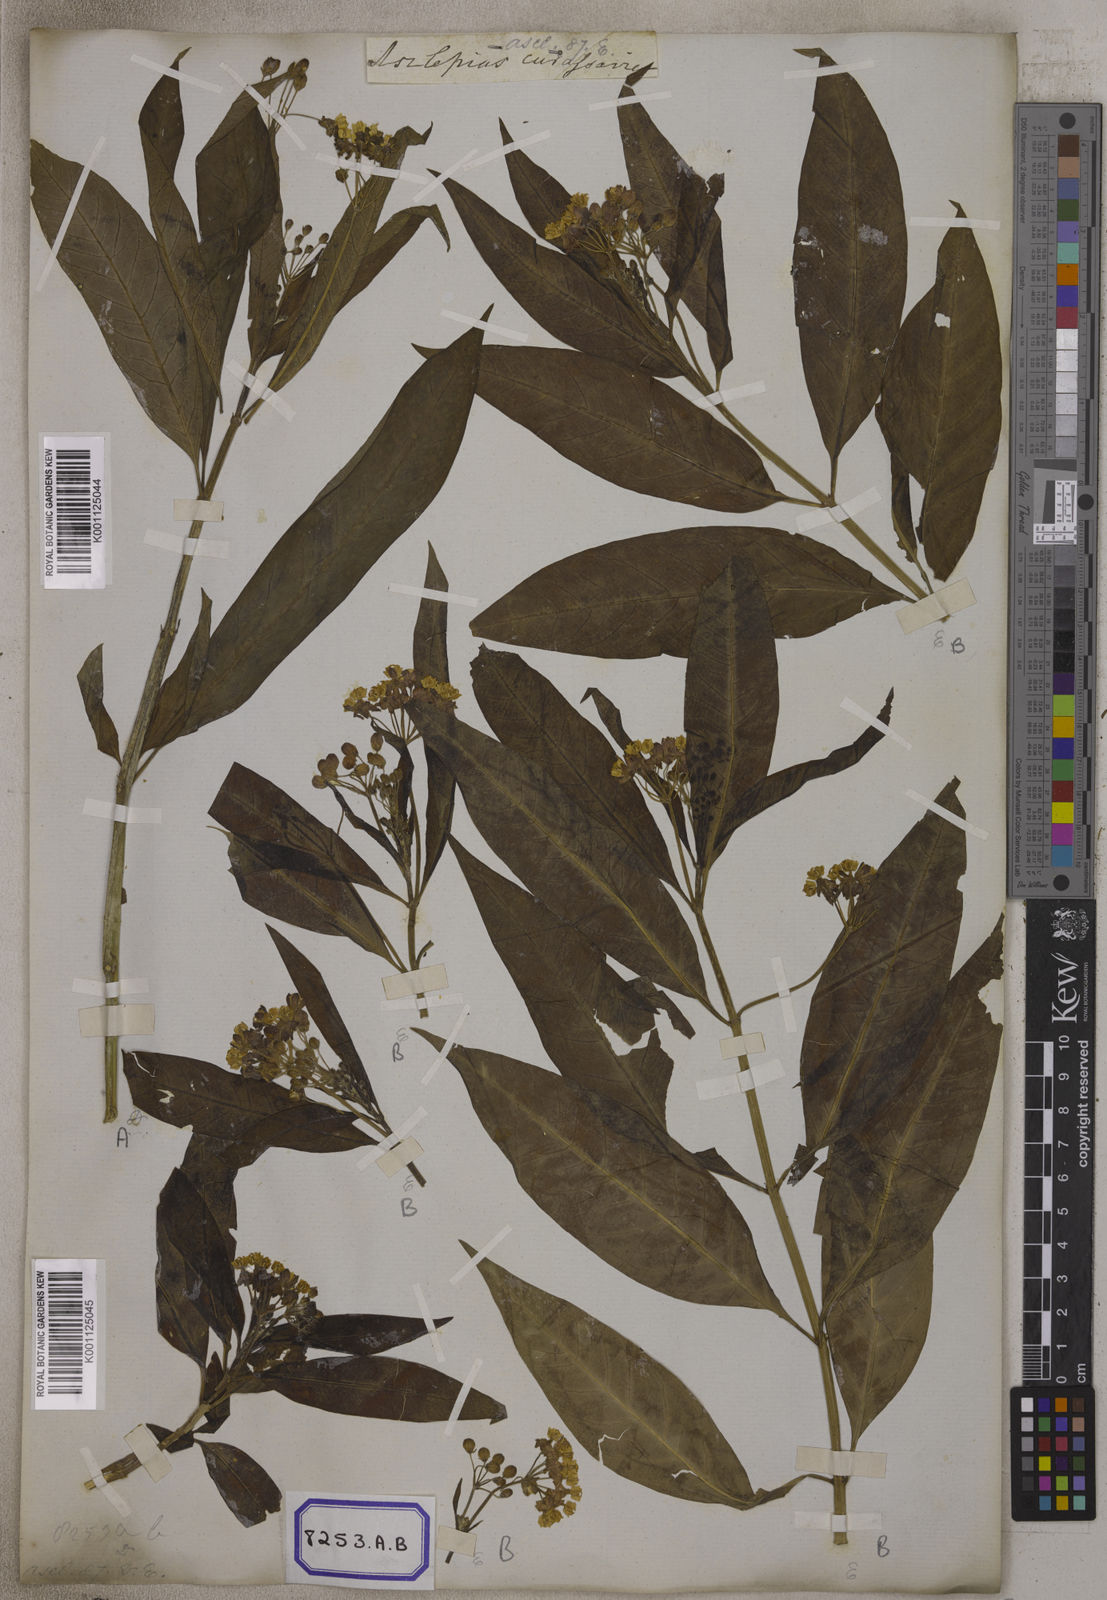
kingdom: Plantae
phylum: Tracheophyta
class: Magnoliopsida
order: Gentianales
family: Apocynaceae
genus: Asclepias
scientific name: Asclepias curassavica
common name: Bloodflower
